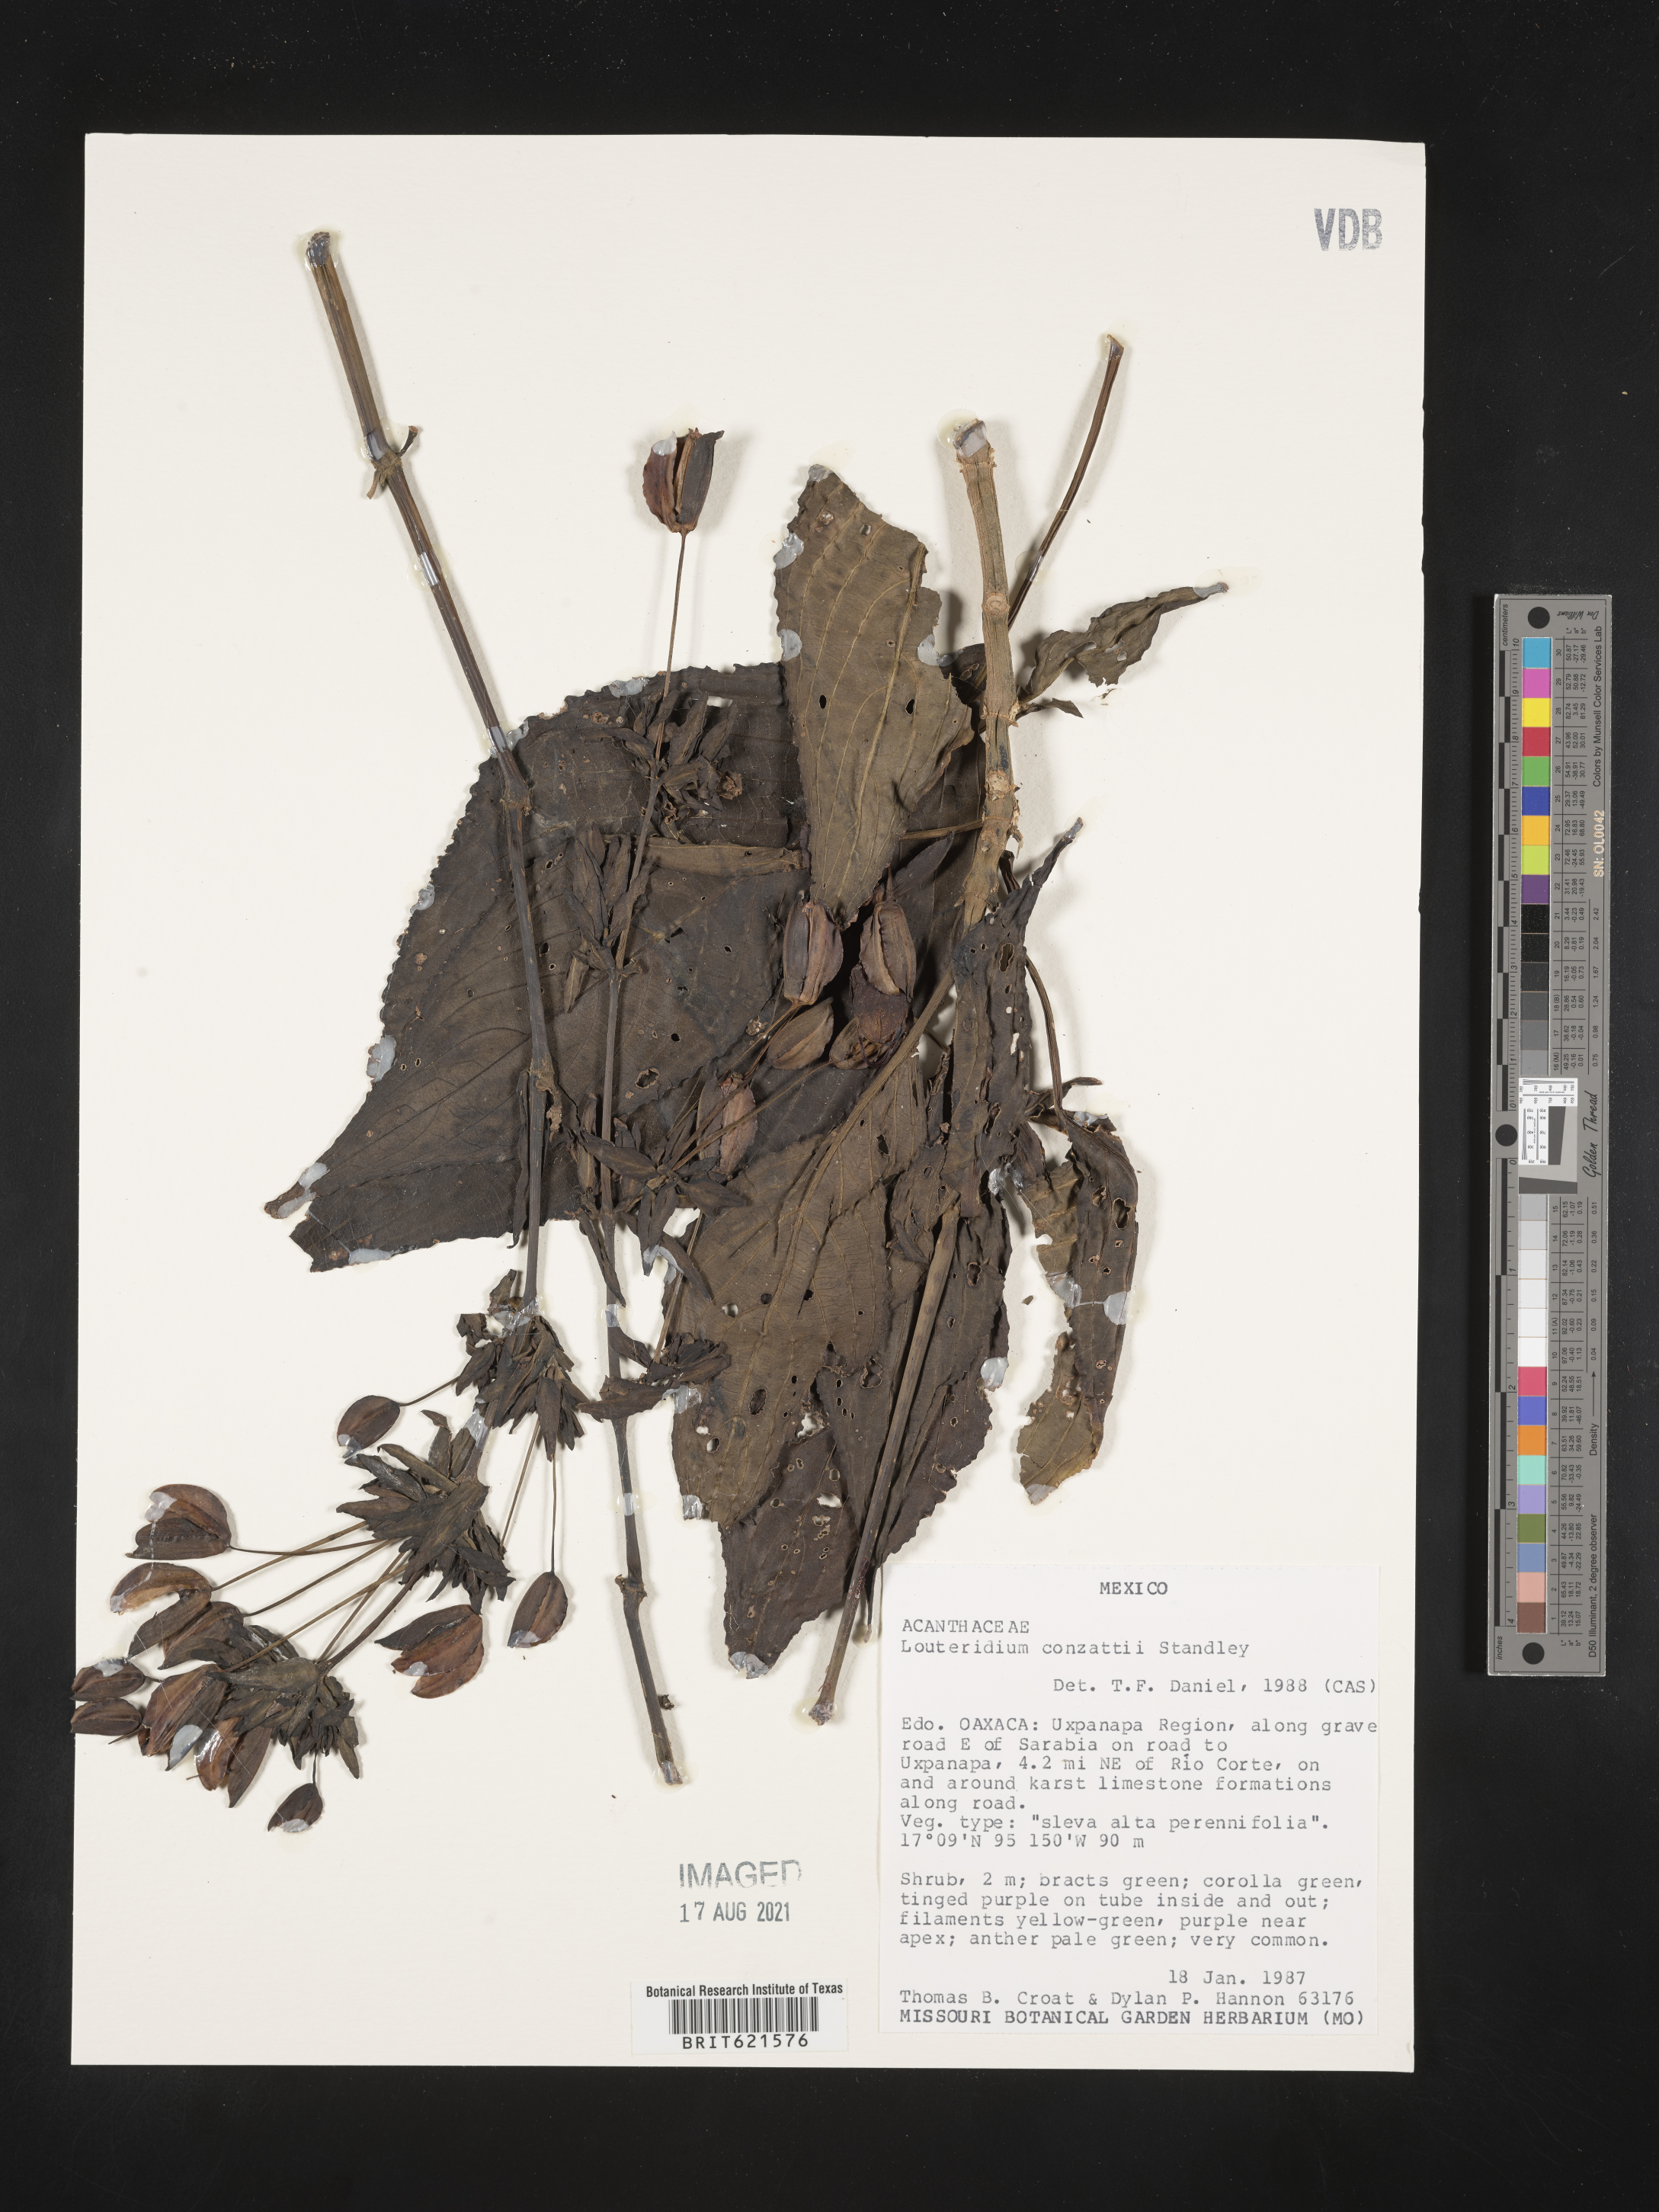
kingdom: Plantae
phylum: Tracheophyta
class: Magnoliopsida
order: Lamiales
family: Acanthaceae
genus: Louteridium
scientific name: Louteridium
